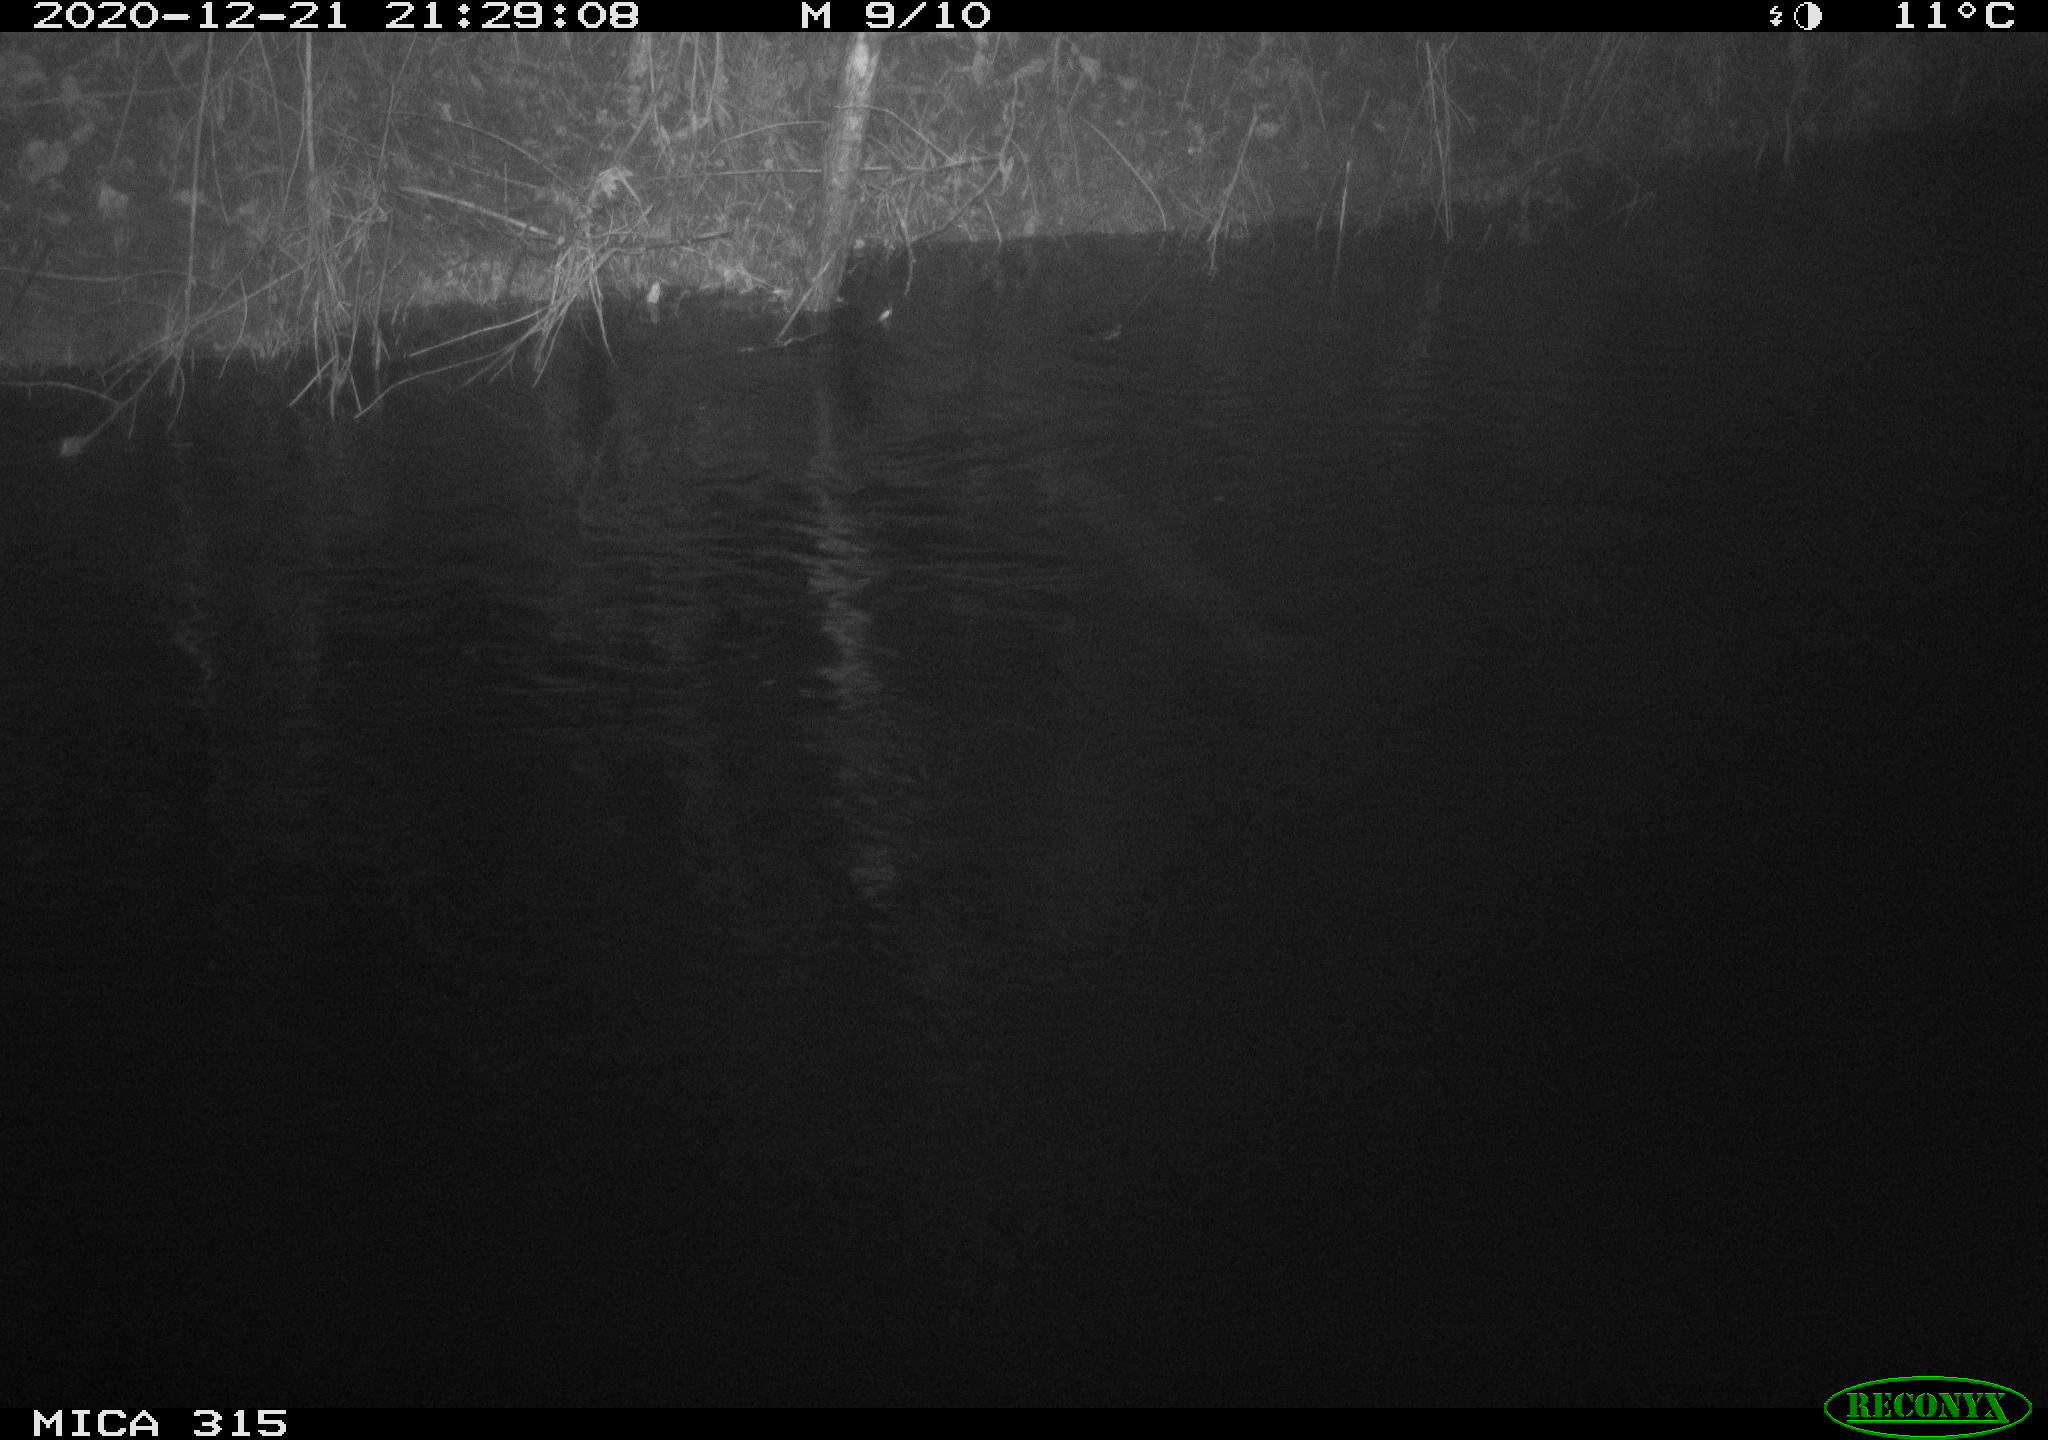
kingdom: Animalia
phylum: Chordata
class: Aves
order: Anseriformes
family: Anatidae
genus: Anas
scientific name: Anas platyrhynchos
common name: Mallard
